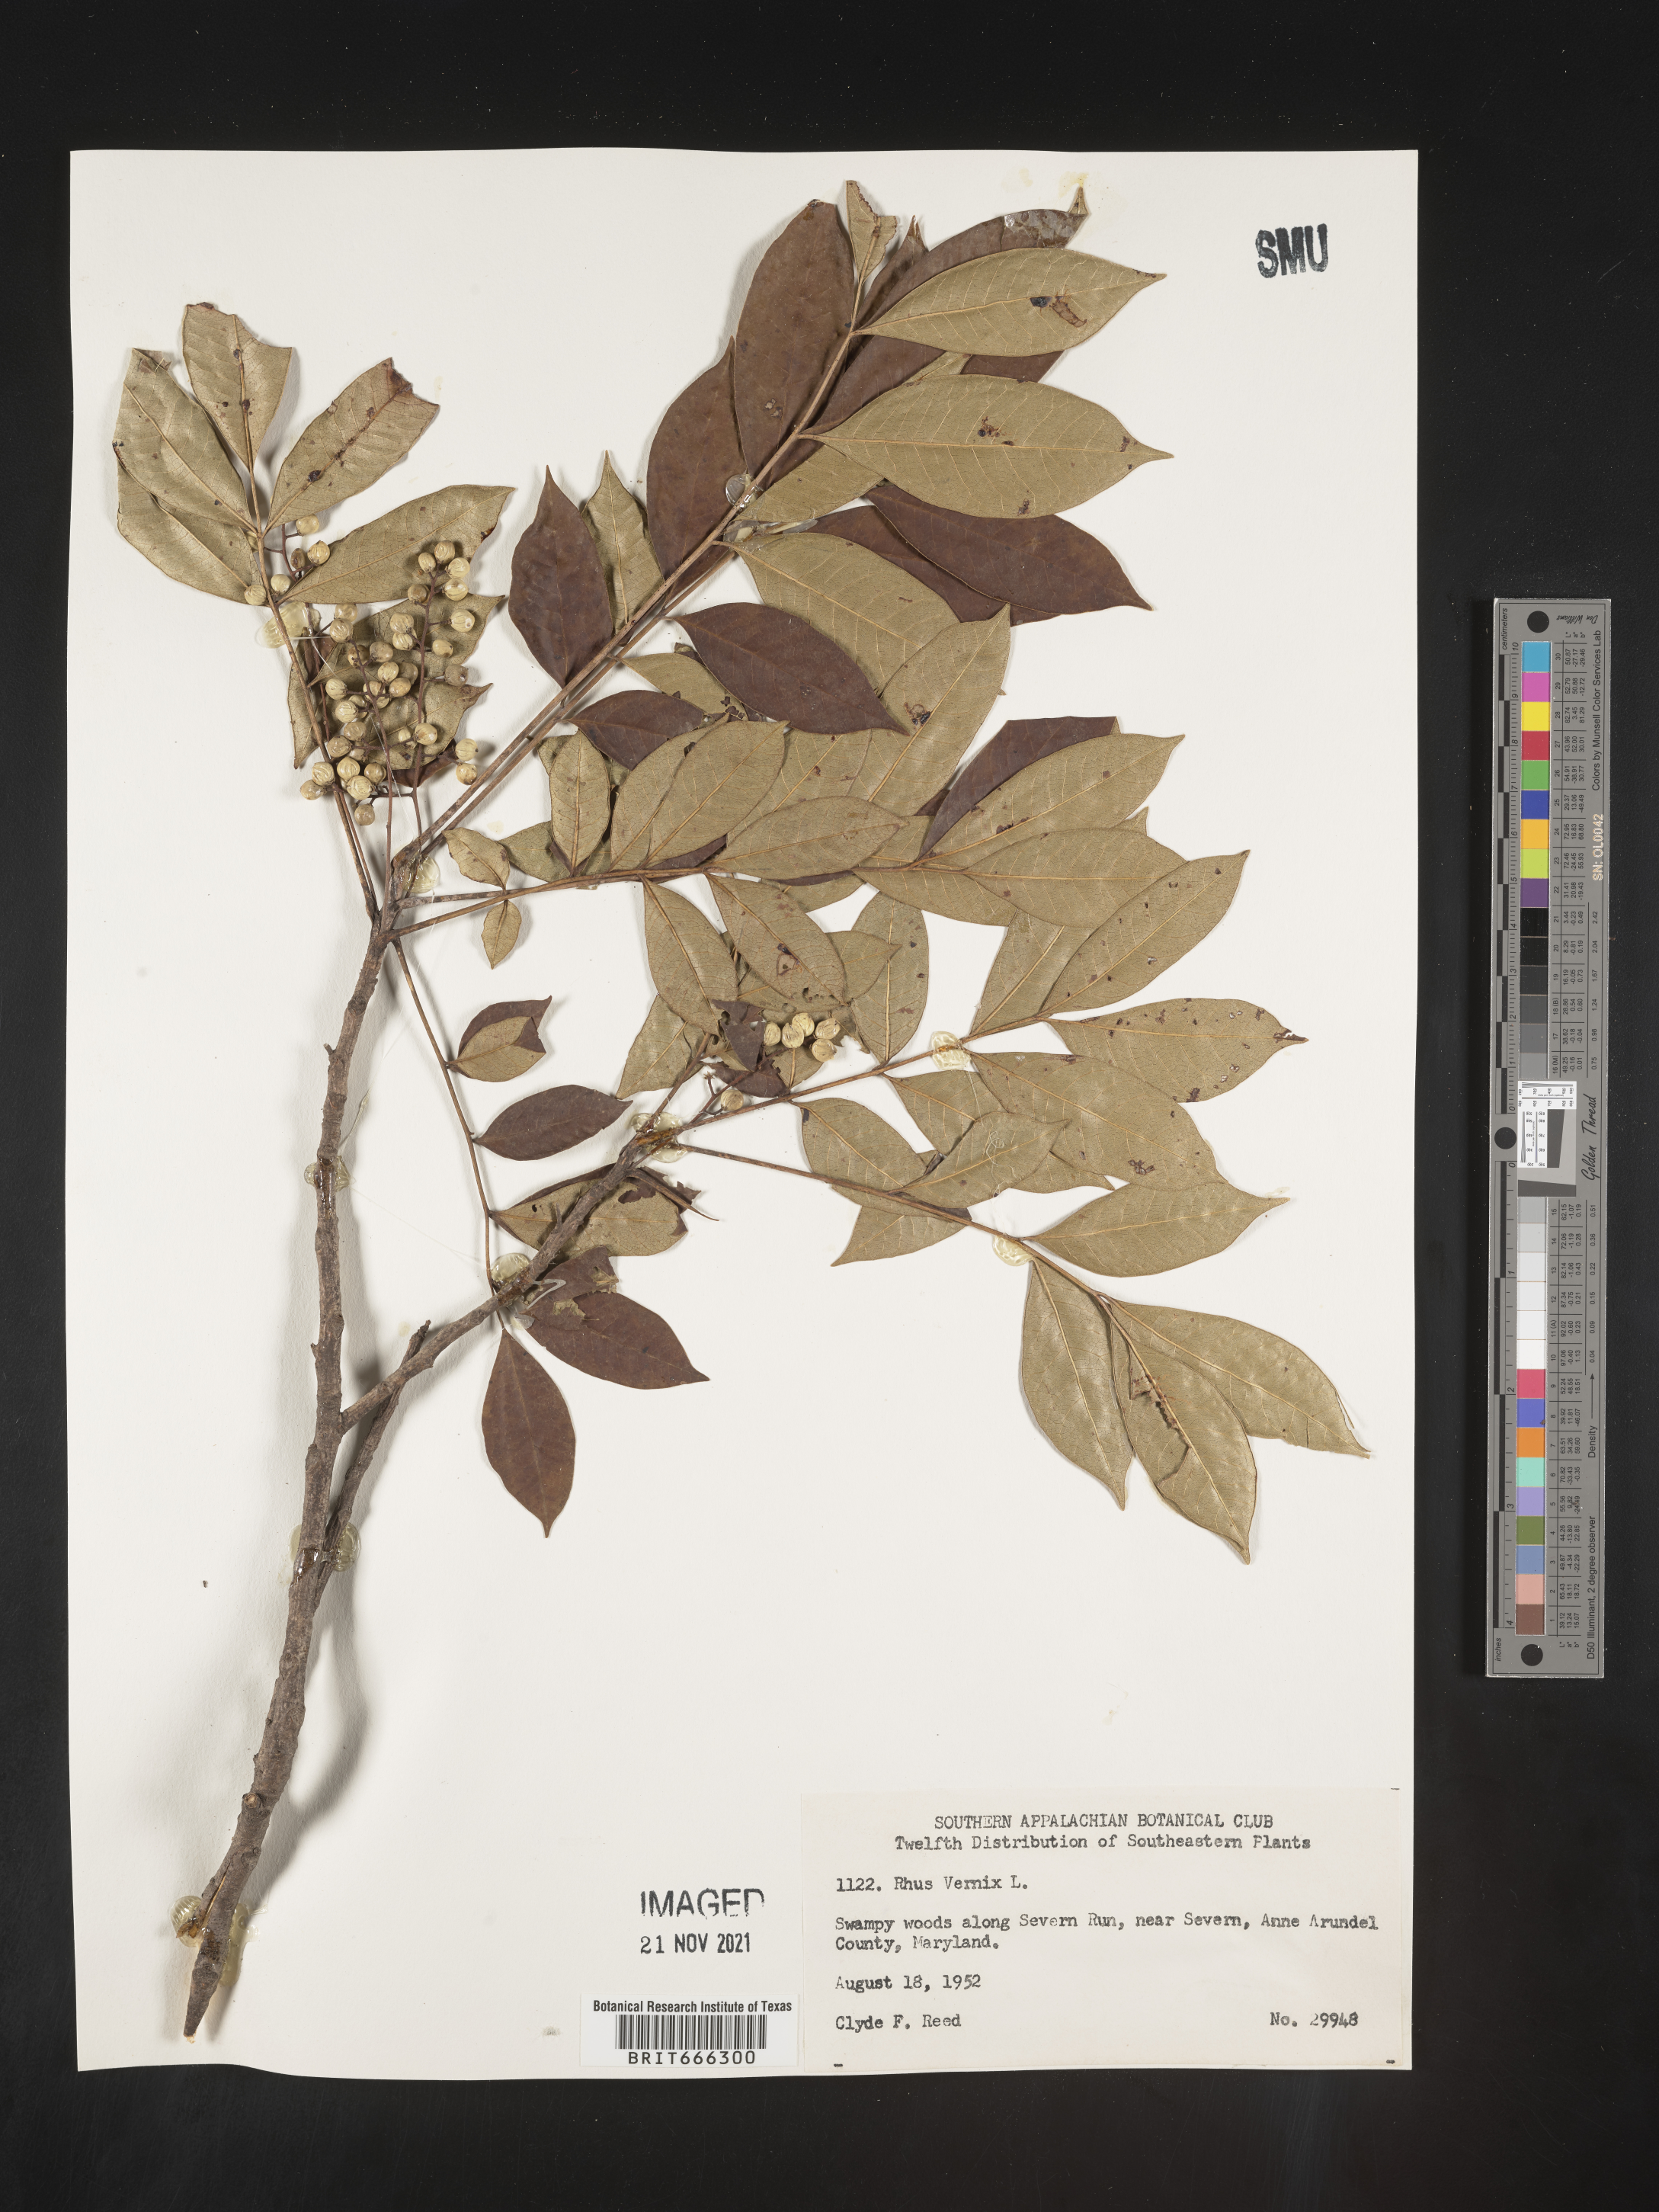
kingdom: Plantae
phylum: Tracheophyta
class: Magnoliopsida
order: Sapindales
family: Anacardiaceae
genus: Toxicodendron
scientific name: Toxicodendron vernix
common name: Poison sumac
